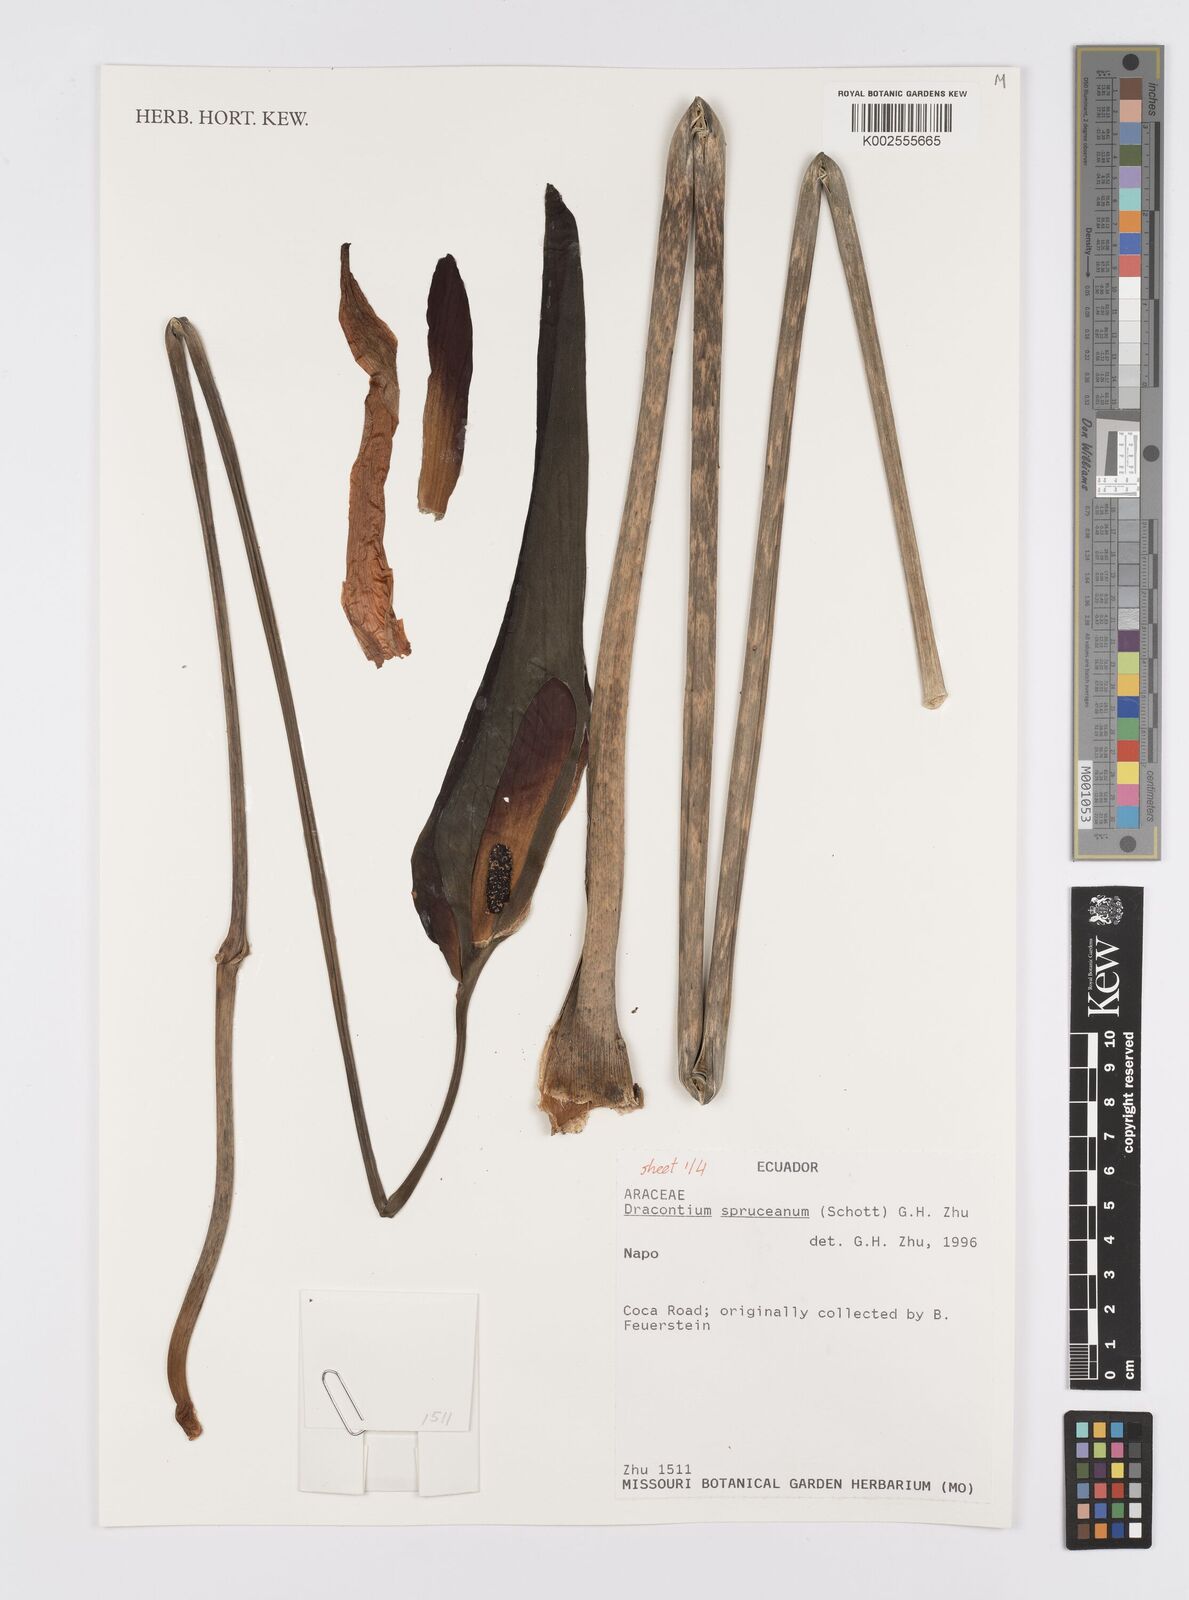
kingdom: Plantae
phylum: Tracheophyta
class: Liliopsida
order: Alismatales
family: Araceae
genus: Dracontium
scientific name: Dracontium spruceanum
